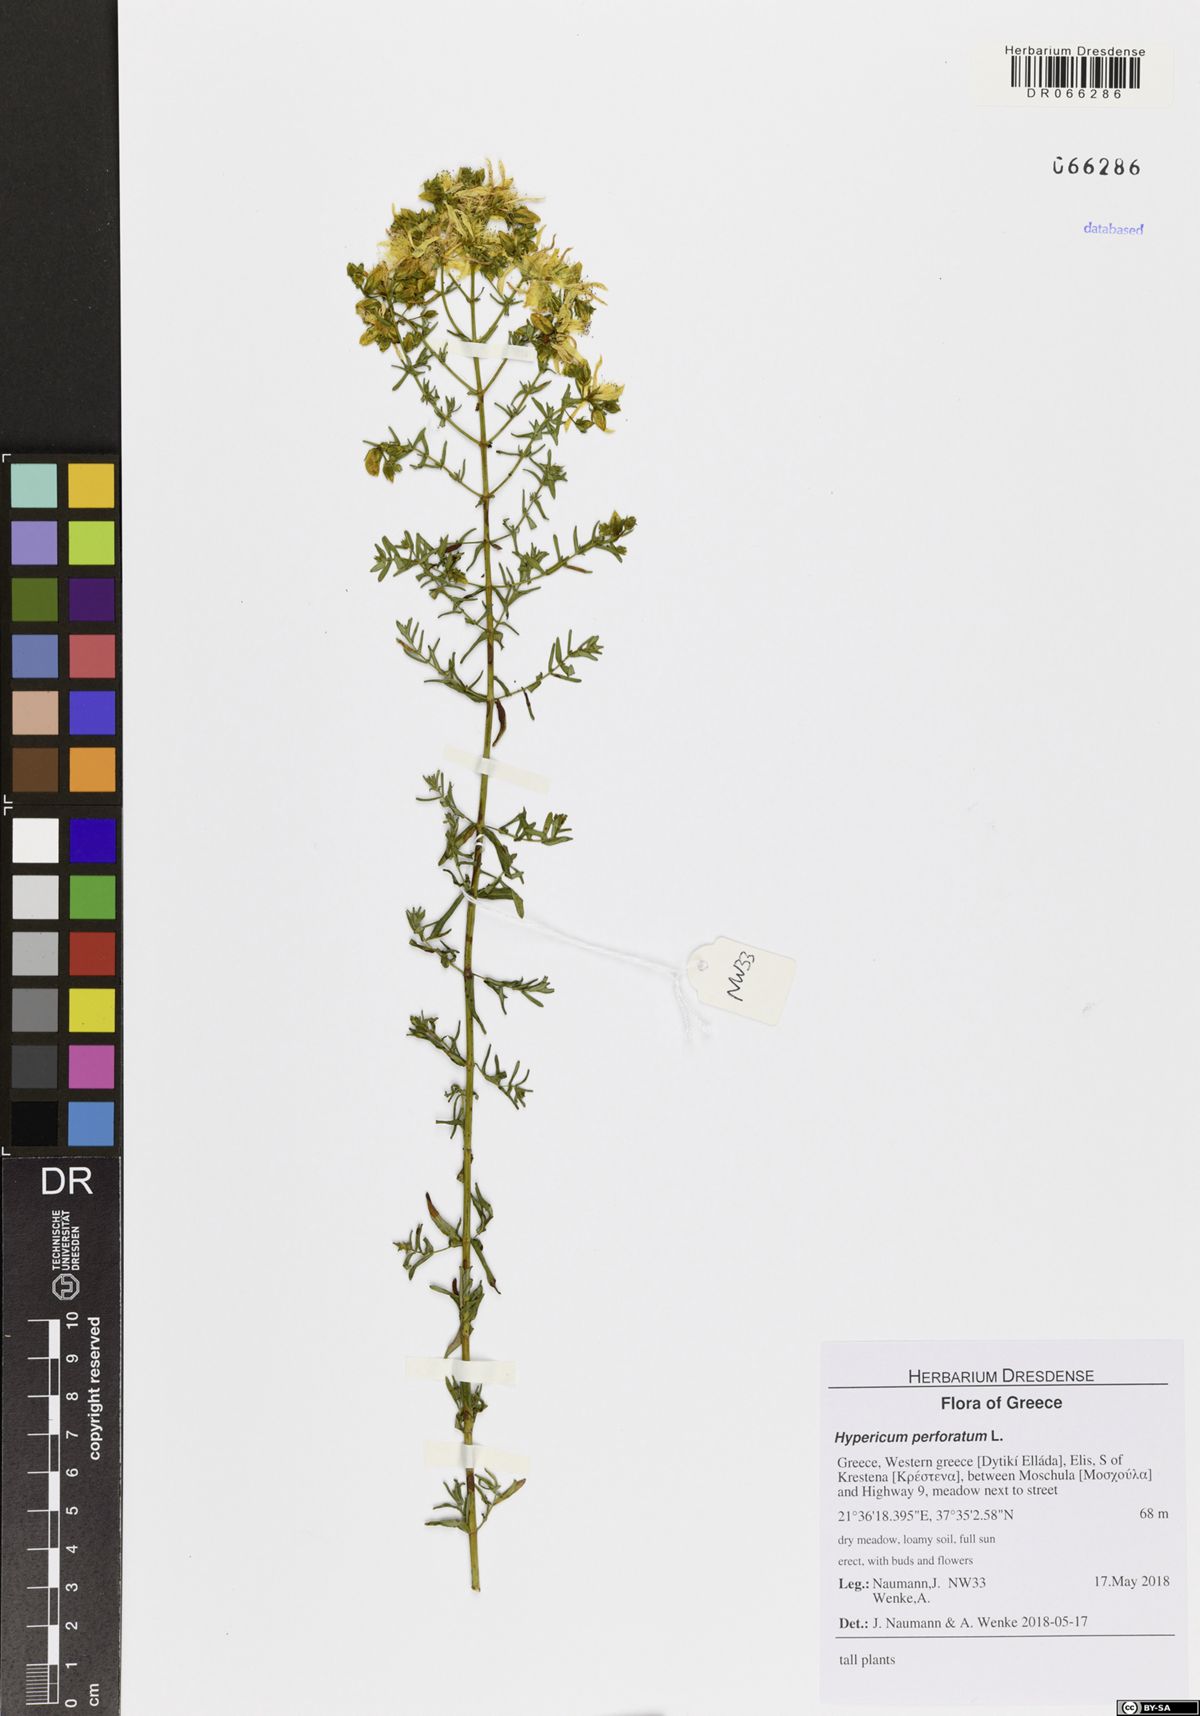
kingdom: Plantae
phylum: Tracheophyta
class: Magnoliopsida
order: Malpighiales
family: Hypericaceae
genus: Hypericum
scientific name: Hypericum perforatum
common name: Common st. johnswort
